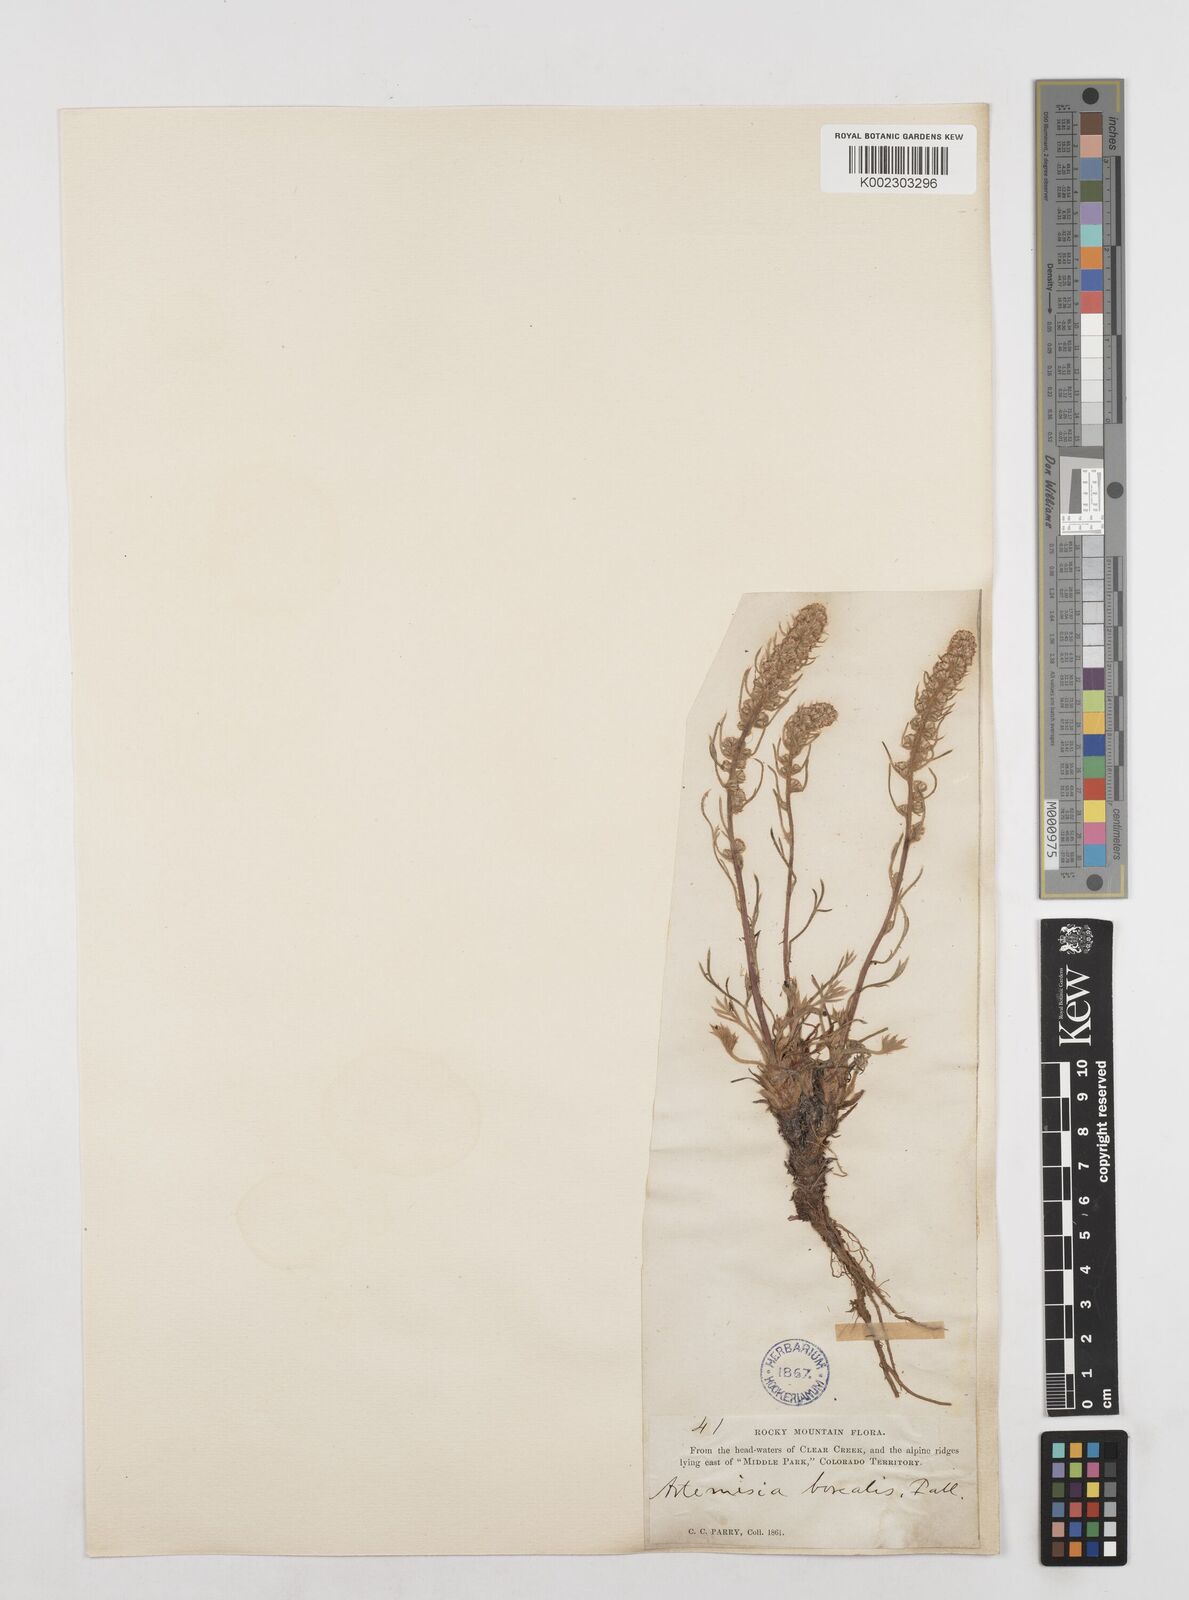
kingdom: Plantae
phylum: Tracheophyta
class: Magnoliopsida
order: Asterales
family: Asteraceae
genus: Artemisia
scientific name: Artemisia borealis
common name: Boreal sage
